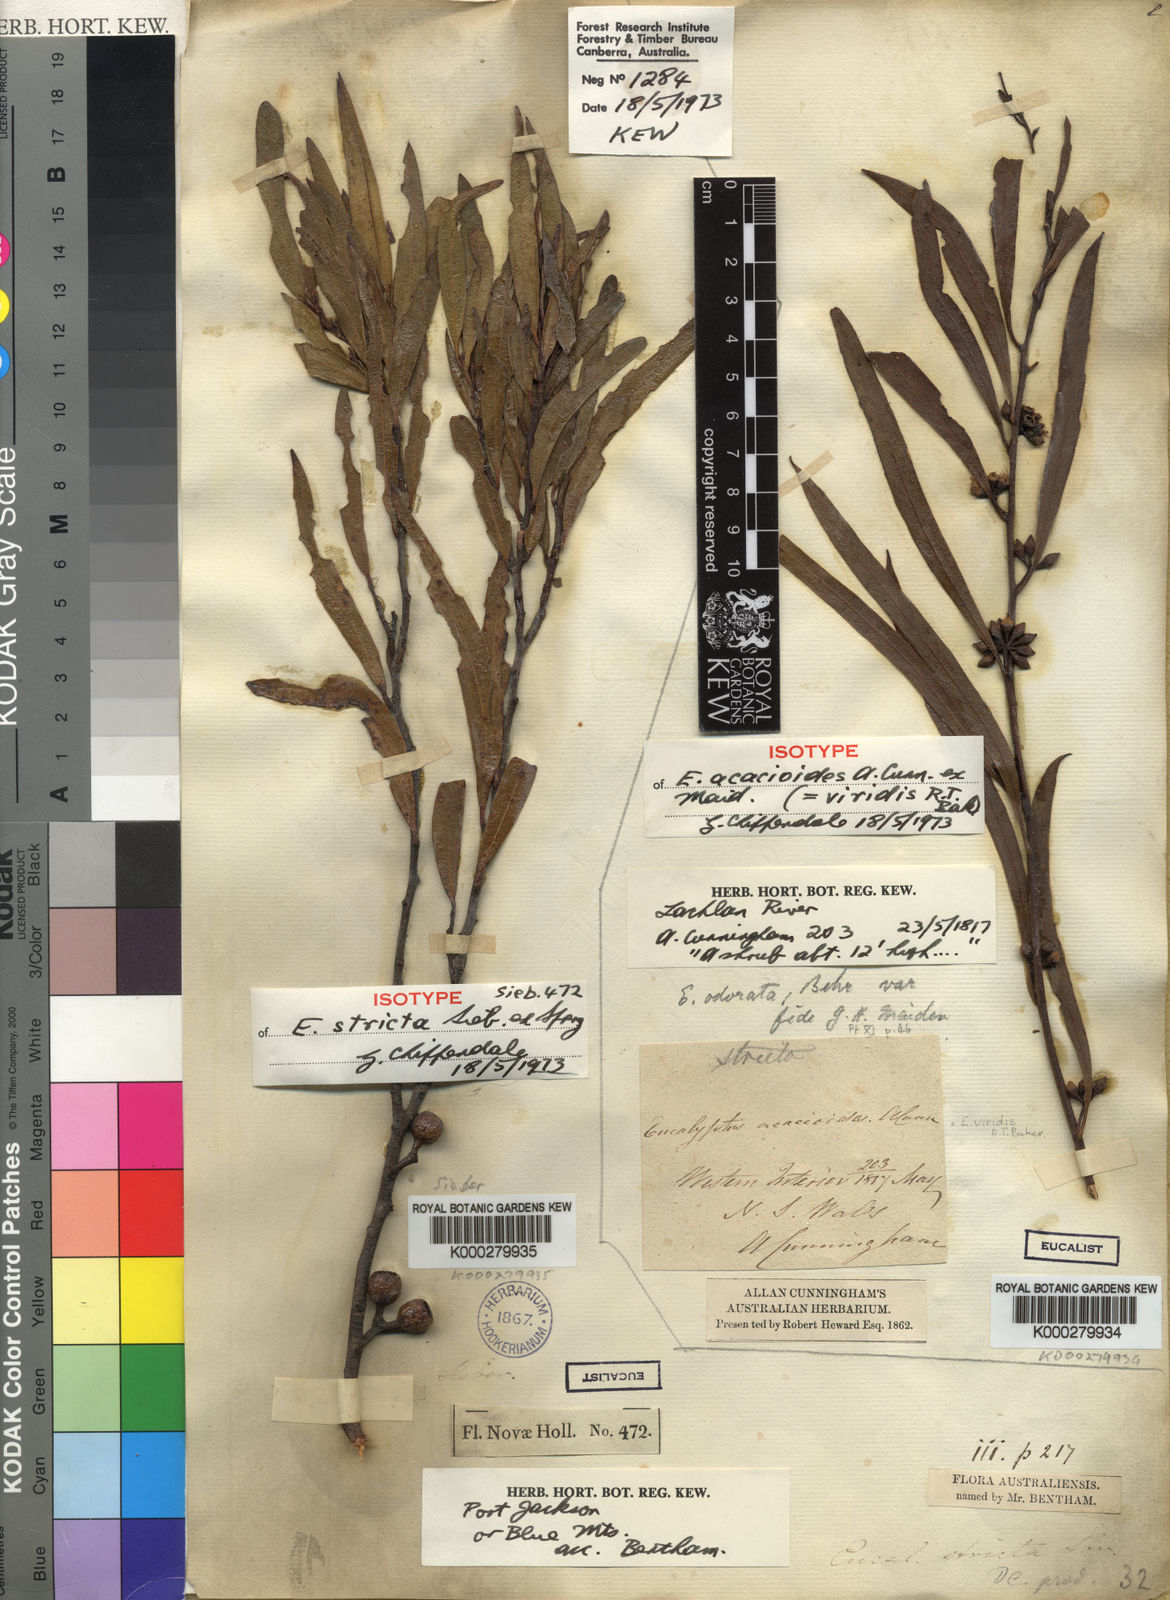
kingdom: Plantae
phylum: Tracheophyta
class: Magnoliopsida
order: Myrtales
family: Myrtaceae
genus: Eucalyptus
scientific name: Eucalyptus stricta
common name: Blue-mountain-malle-ash
